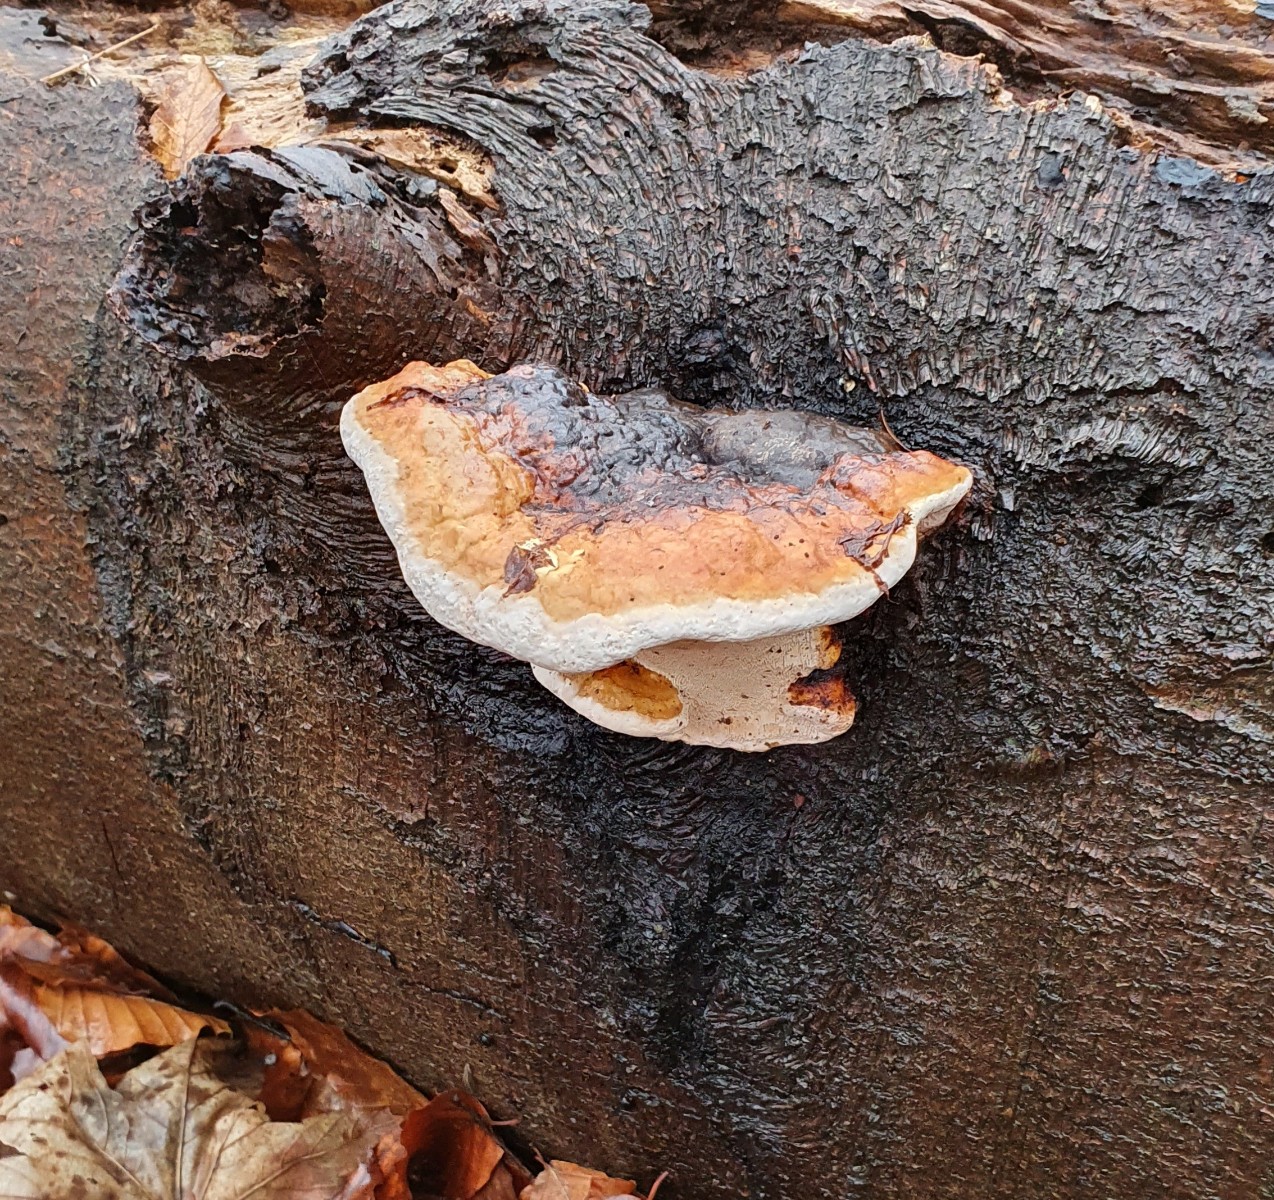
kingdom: Fungi
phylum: Basidiomycota
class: Agaricomycetes
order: Polyporales
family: Fomitopsidaceae
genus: Fomitopsis
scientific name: Fomitopsis pinicola
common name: randbæltet hovporesvamp
